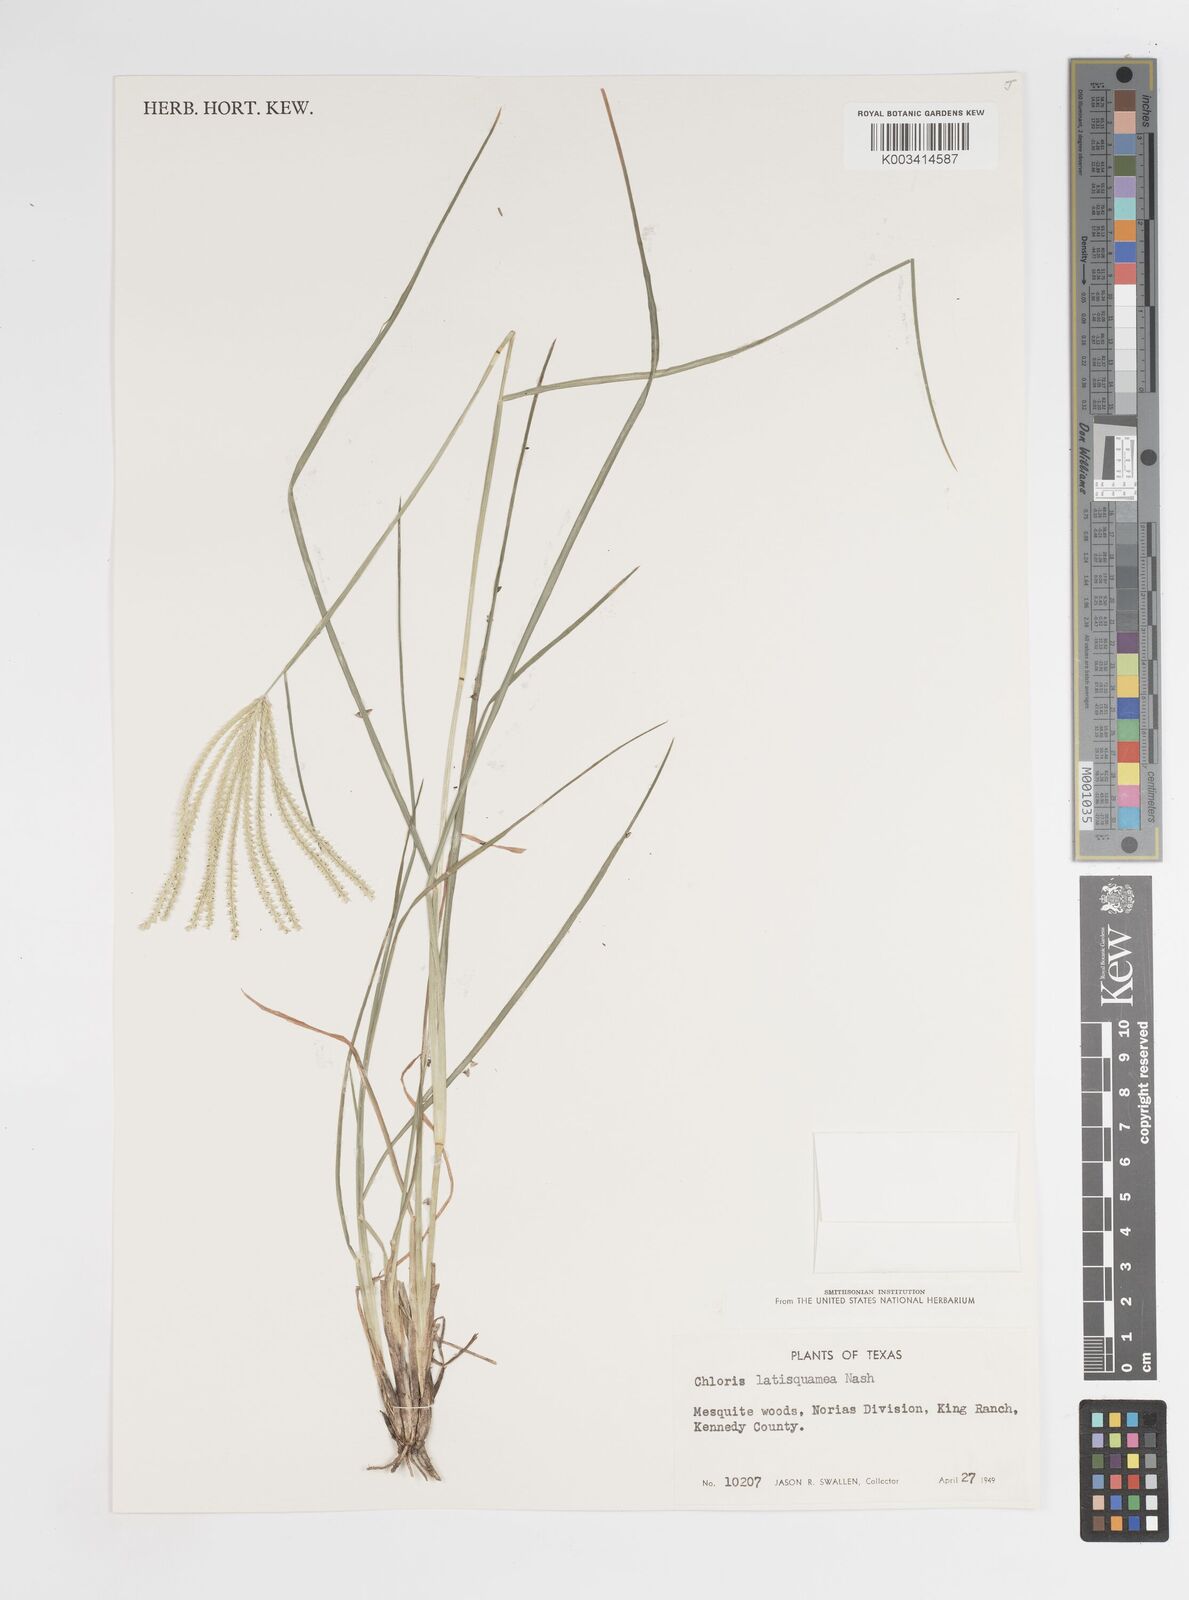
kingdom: Plantae
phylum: Tracheophyta
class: Liliopsida
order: Poales
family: Poaceae
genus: Chloris
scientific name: Chloris subdolichostachya
